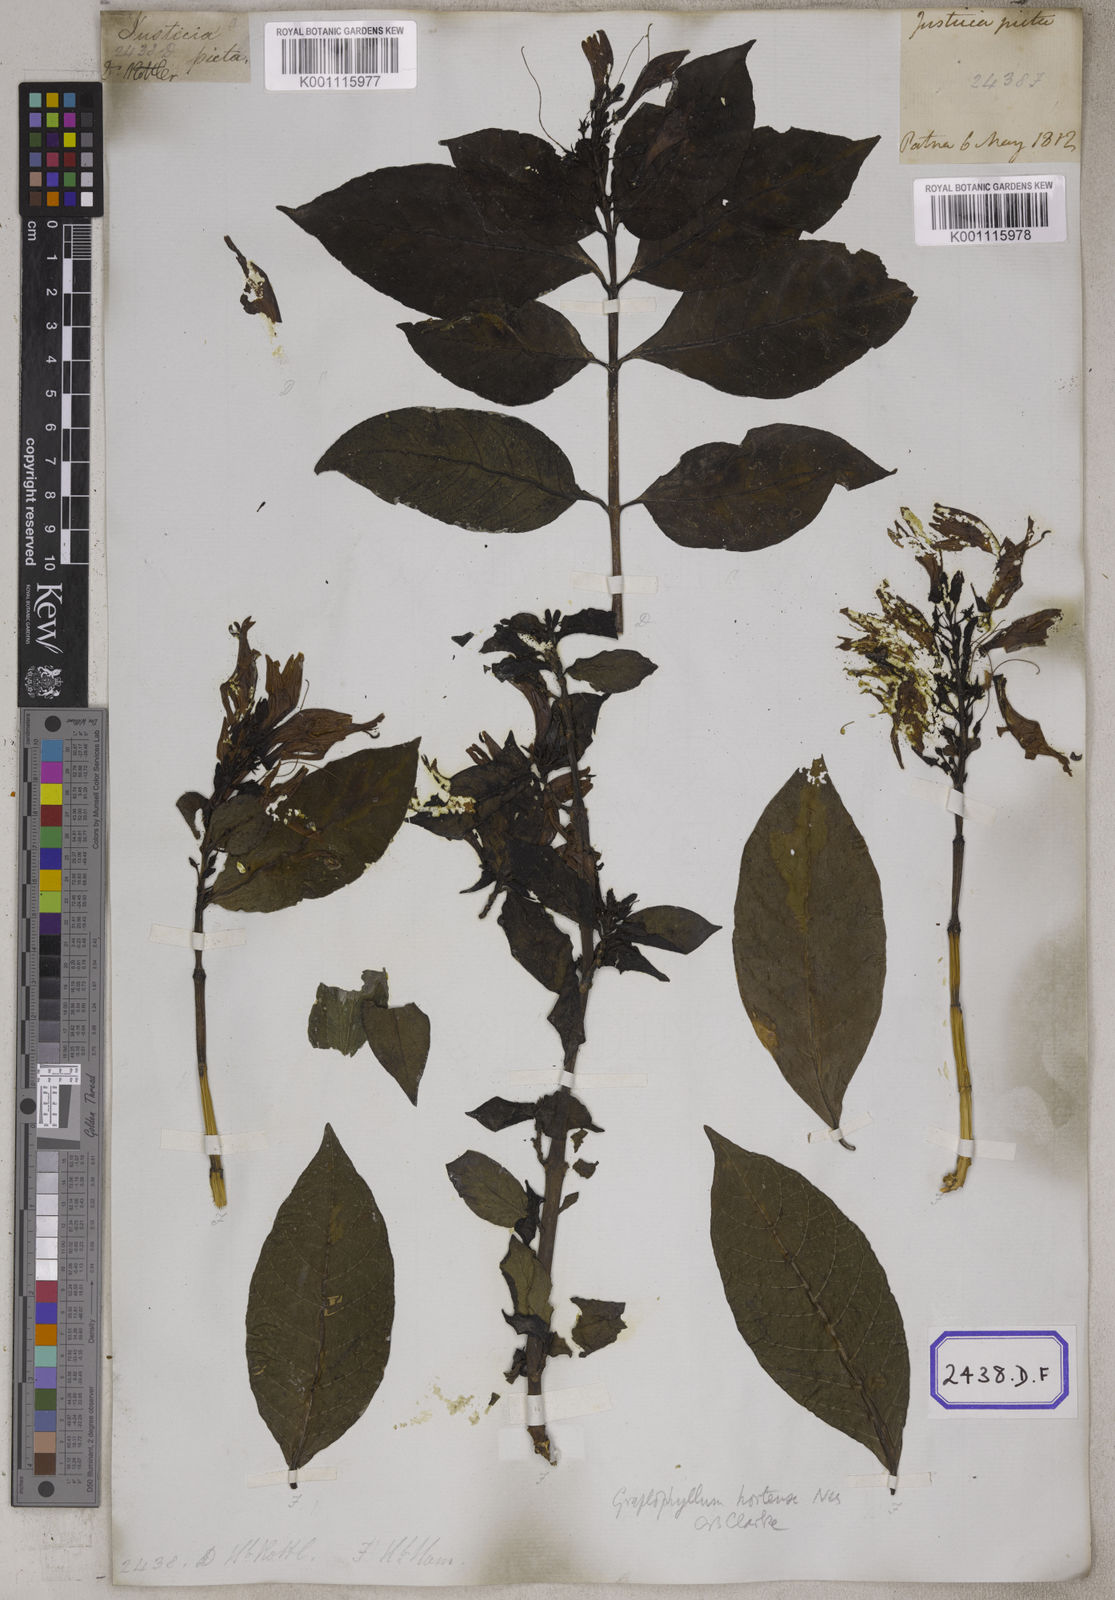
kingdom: Plantae
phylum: Tracheophyta
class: Magnoliopsida
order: Lamiales
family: Acanthaceae
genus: Graptophyllum
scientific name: Graptophyllum pictum
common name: Caricature-plant
